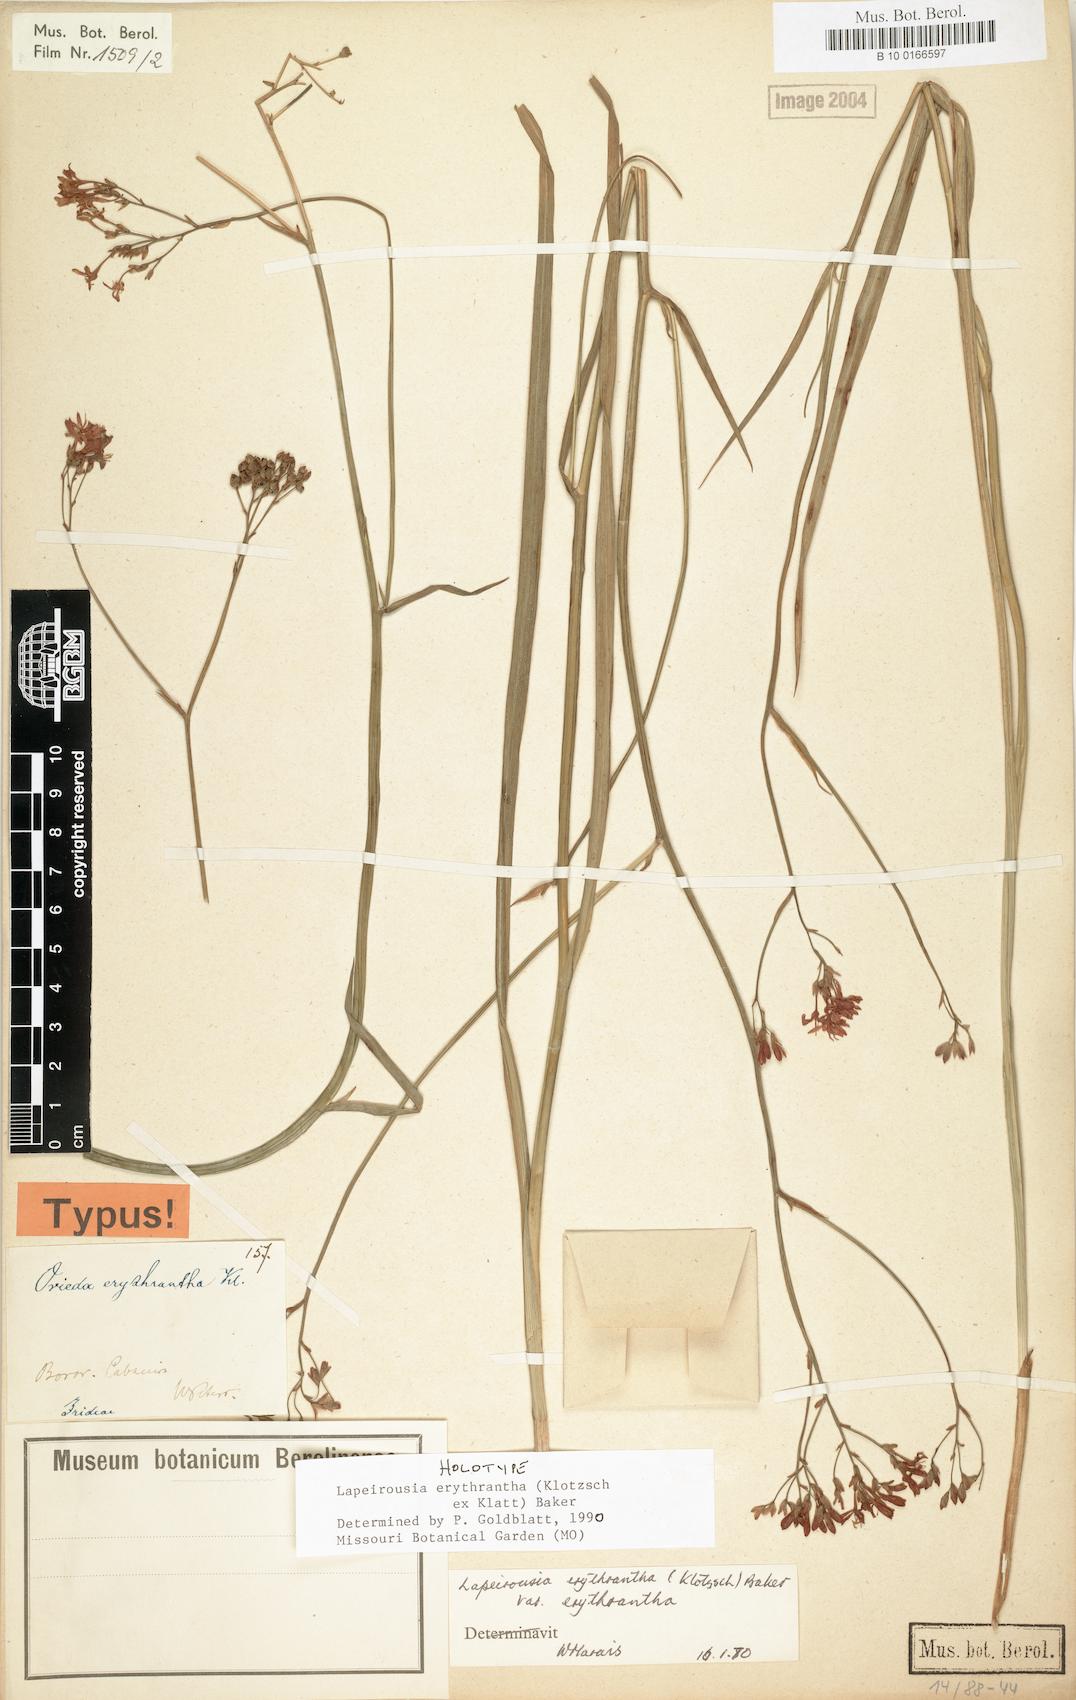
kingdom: Plantae
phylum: Tracheophyta
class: Liliopsida
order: Asparagales
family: Iridaceae
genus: Afrosolen
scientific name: Afrosolen erythranthus
